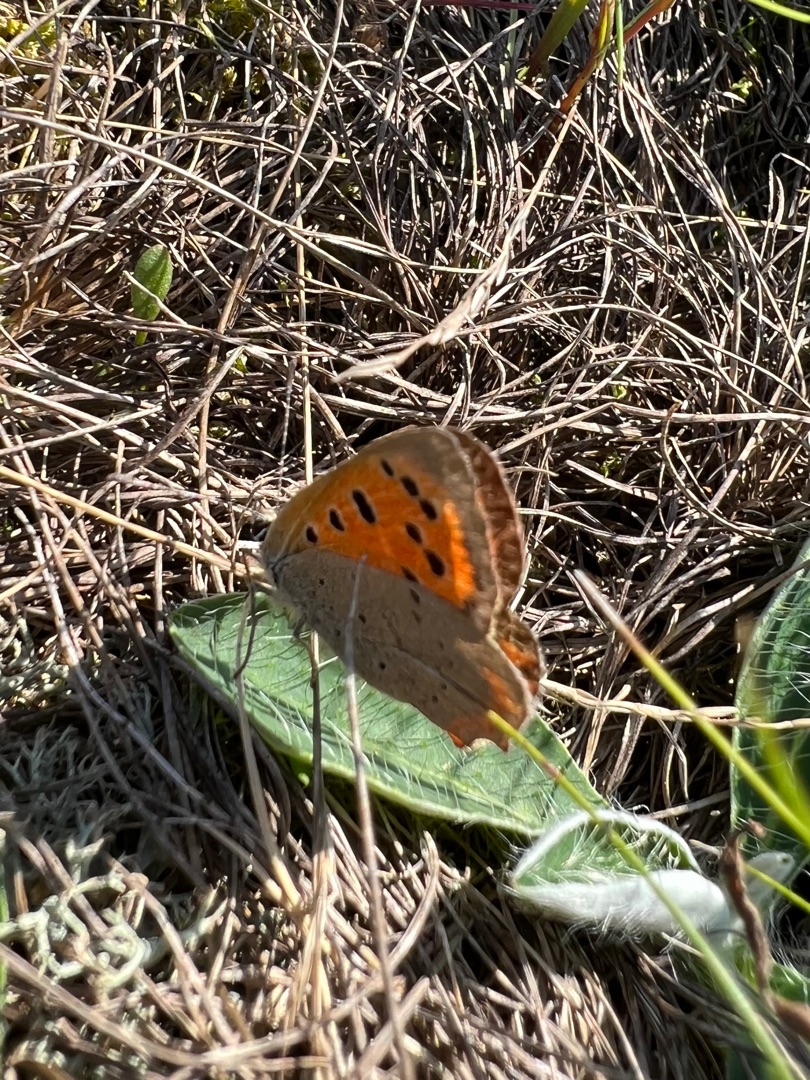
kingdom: Animalia
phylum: Arthropoda
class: Insecta
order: Lepidoptera
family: Lycaenidae
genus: Lycaena
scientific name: Lycaena phlaeas
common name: Lille ildfugl
